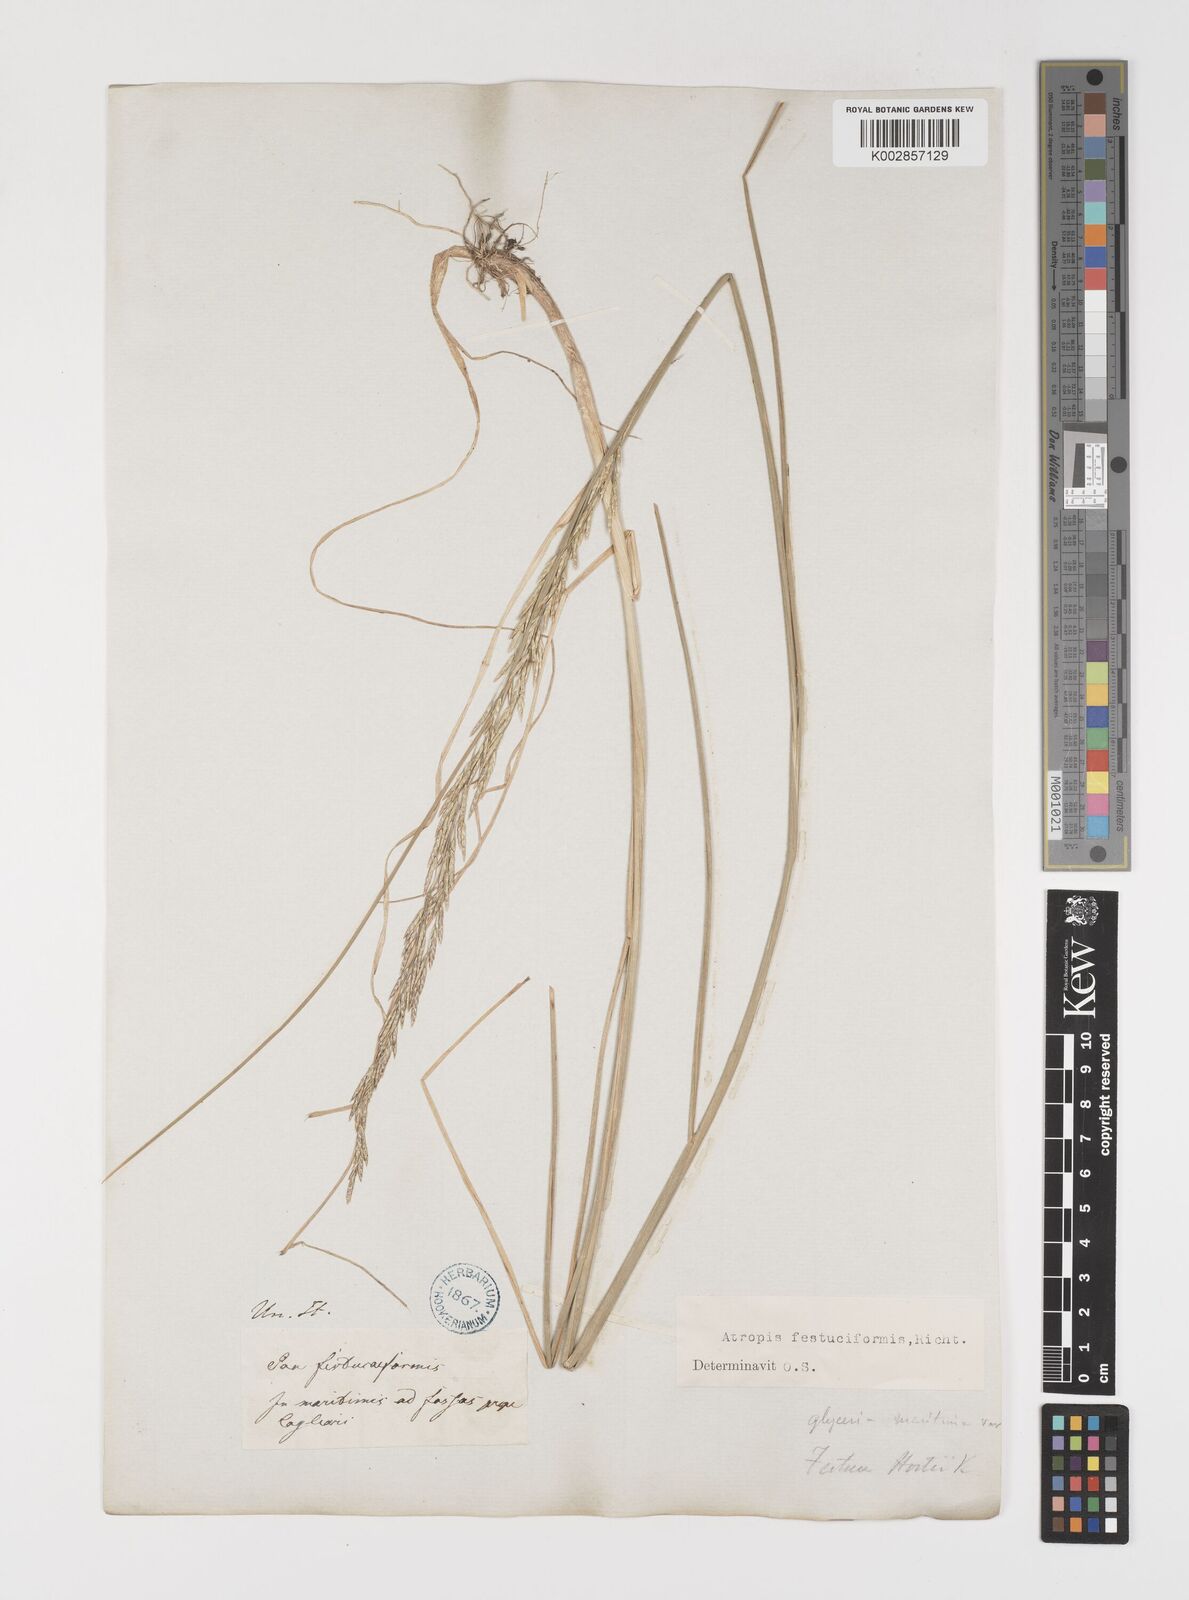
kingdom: Plantae
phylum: Tracheophyta
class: Liliopsida
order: Poales
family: Poaceae
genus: Puccinellia
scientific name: Puccinellia festuciformis
